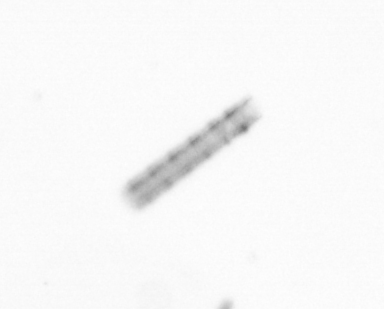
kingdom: Chromista
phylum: Ochrophyta
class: Bacillariophyceae
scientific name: Bacillariophyceae
